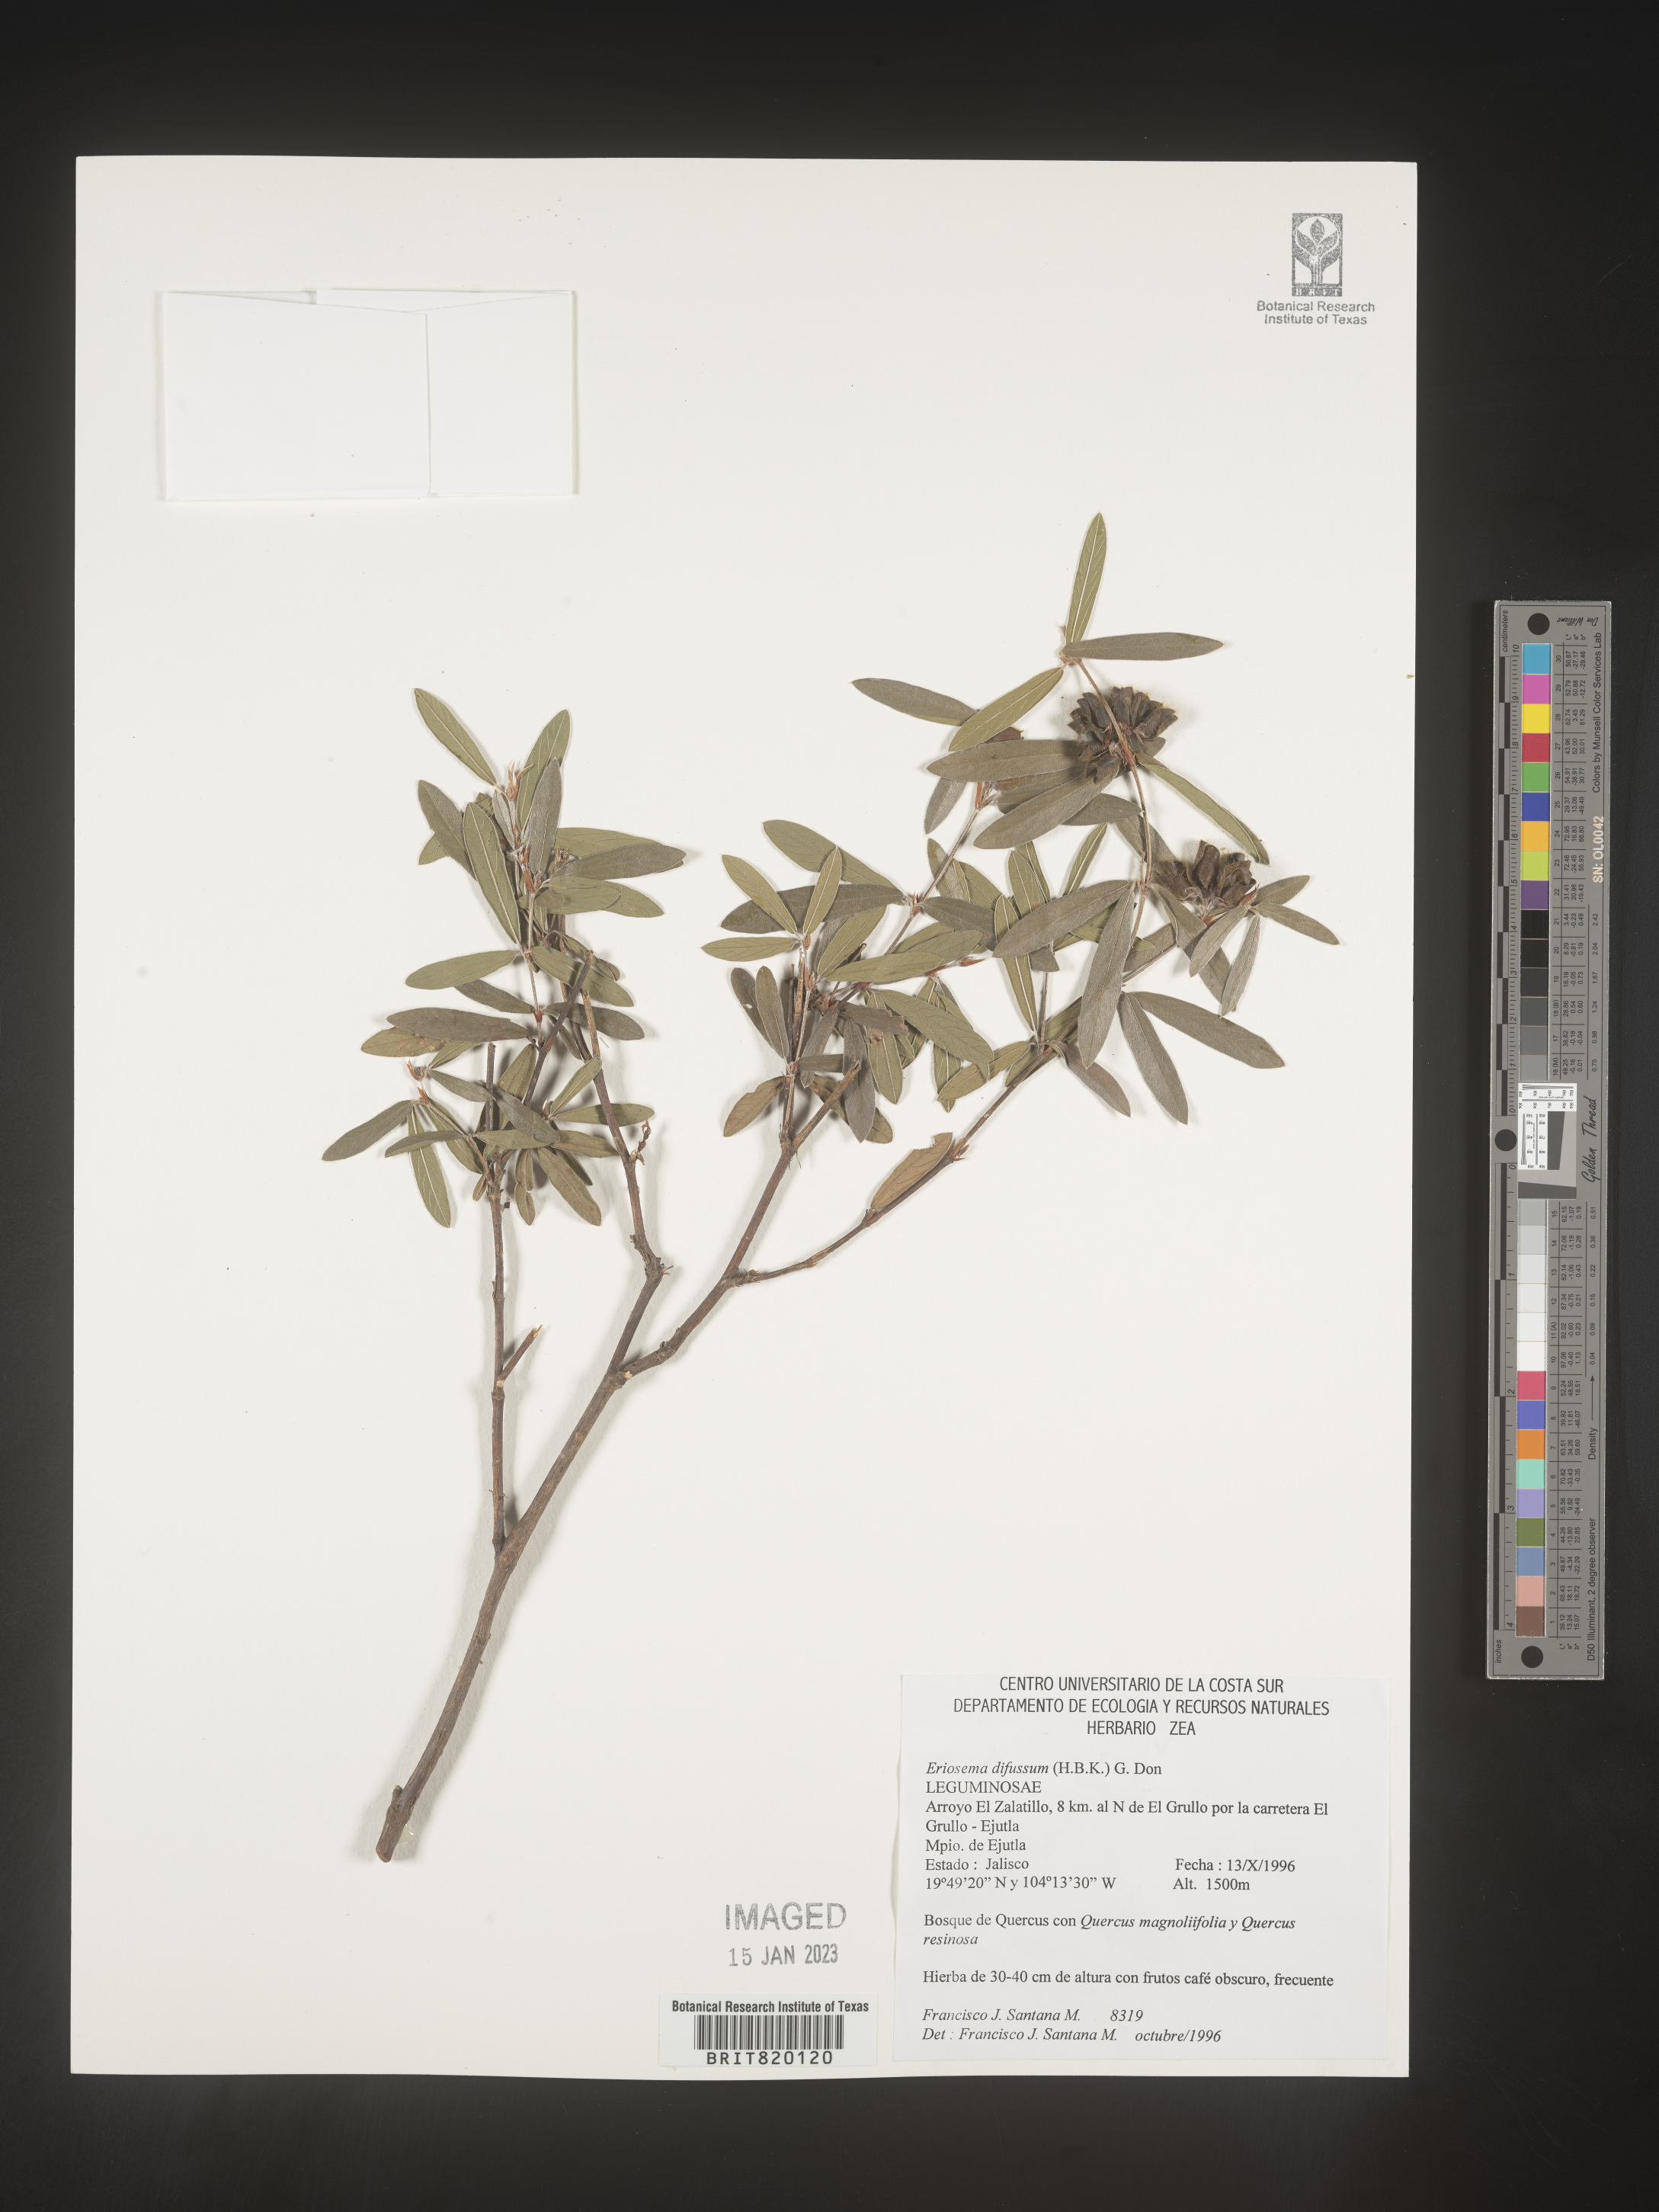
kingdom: Plantae
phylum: Tracheophyta
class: Magnoliopsida
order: Fabales
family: Fabaceae
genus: Eriosema
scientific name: Eriosema
